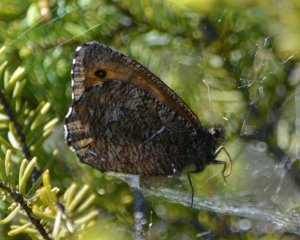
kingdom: Animalia
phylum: Arthropoda
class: Insecta
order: Lepidoptera
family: Nymphalidae
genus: Oeneis
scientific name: Oeneis jutta
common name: Jutta Arctic
